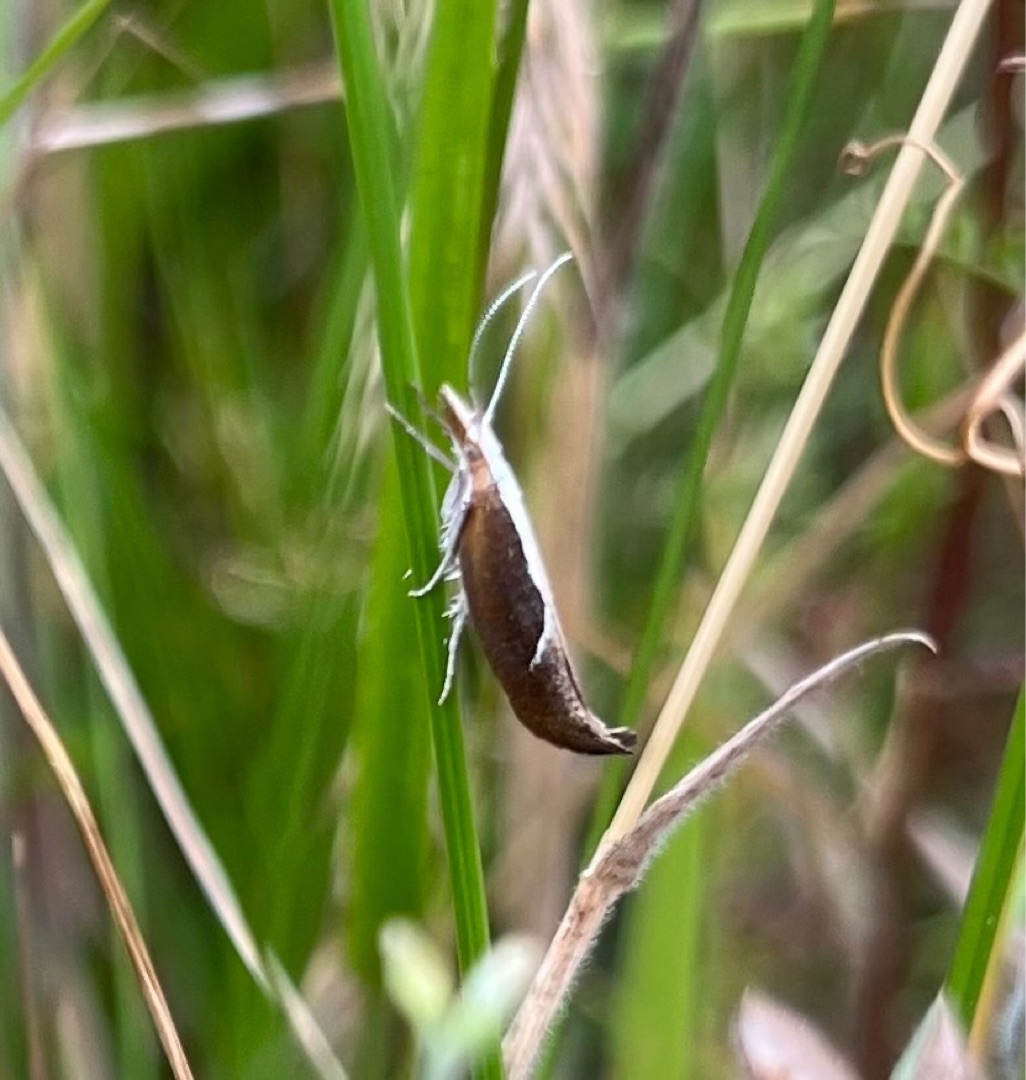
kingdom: Animalia
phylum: Arthropoda
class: Insecta
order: Lepidoptera
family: Ypsolophidae
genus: Ypsolopha
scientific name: Ypsolopha dentella
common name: Snudegedebladmøl
